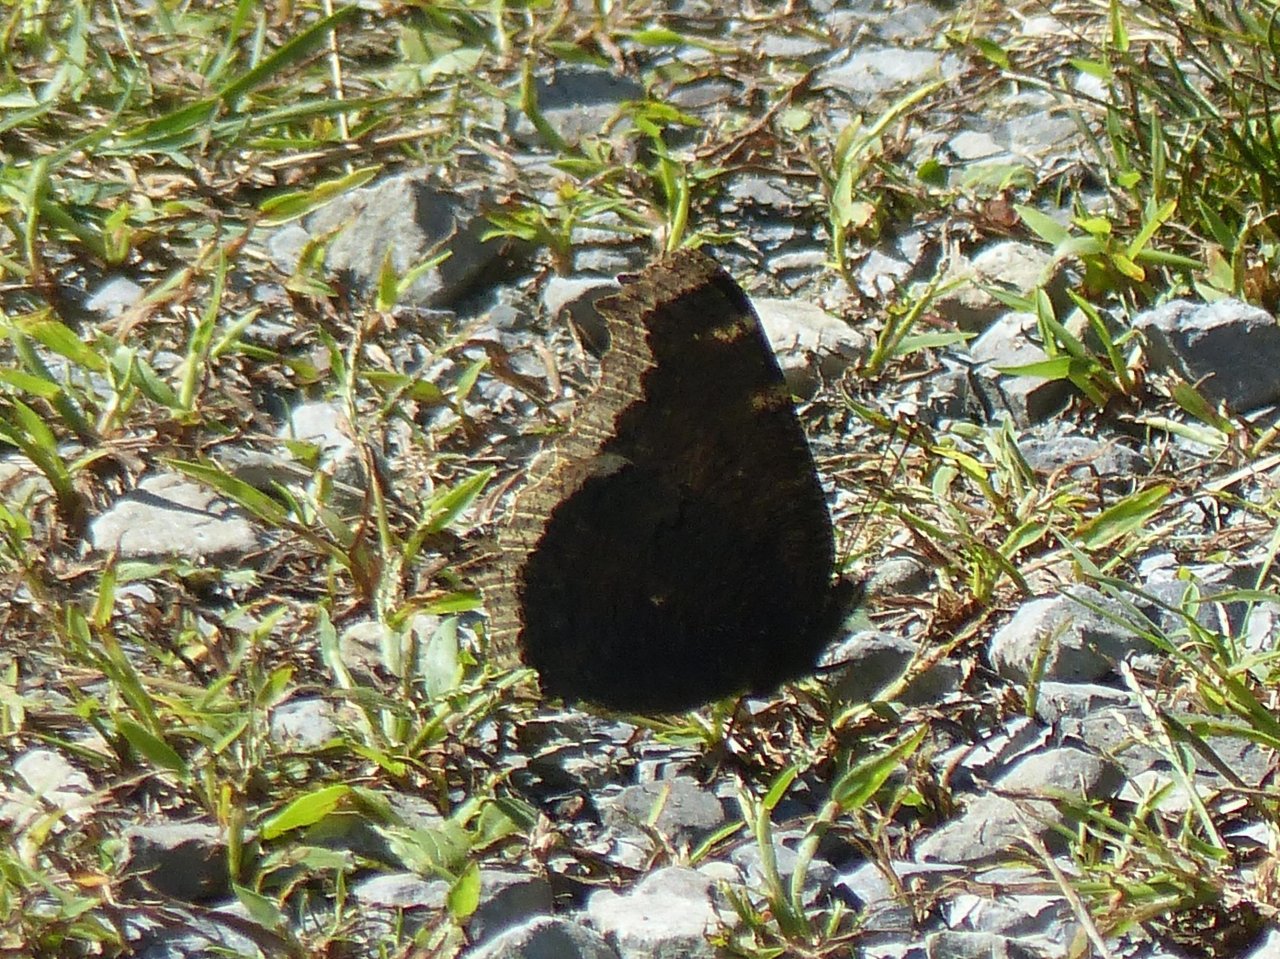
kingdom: Animalia
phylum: Arthropoda
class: Insecta
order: Lepidoptera
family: Nymphalidae
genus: Nymphalis
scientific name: Nymphalis antiopa
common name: Mourning Cloak
